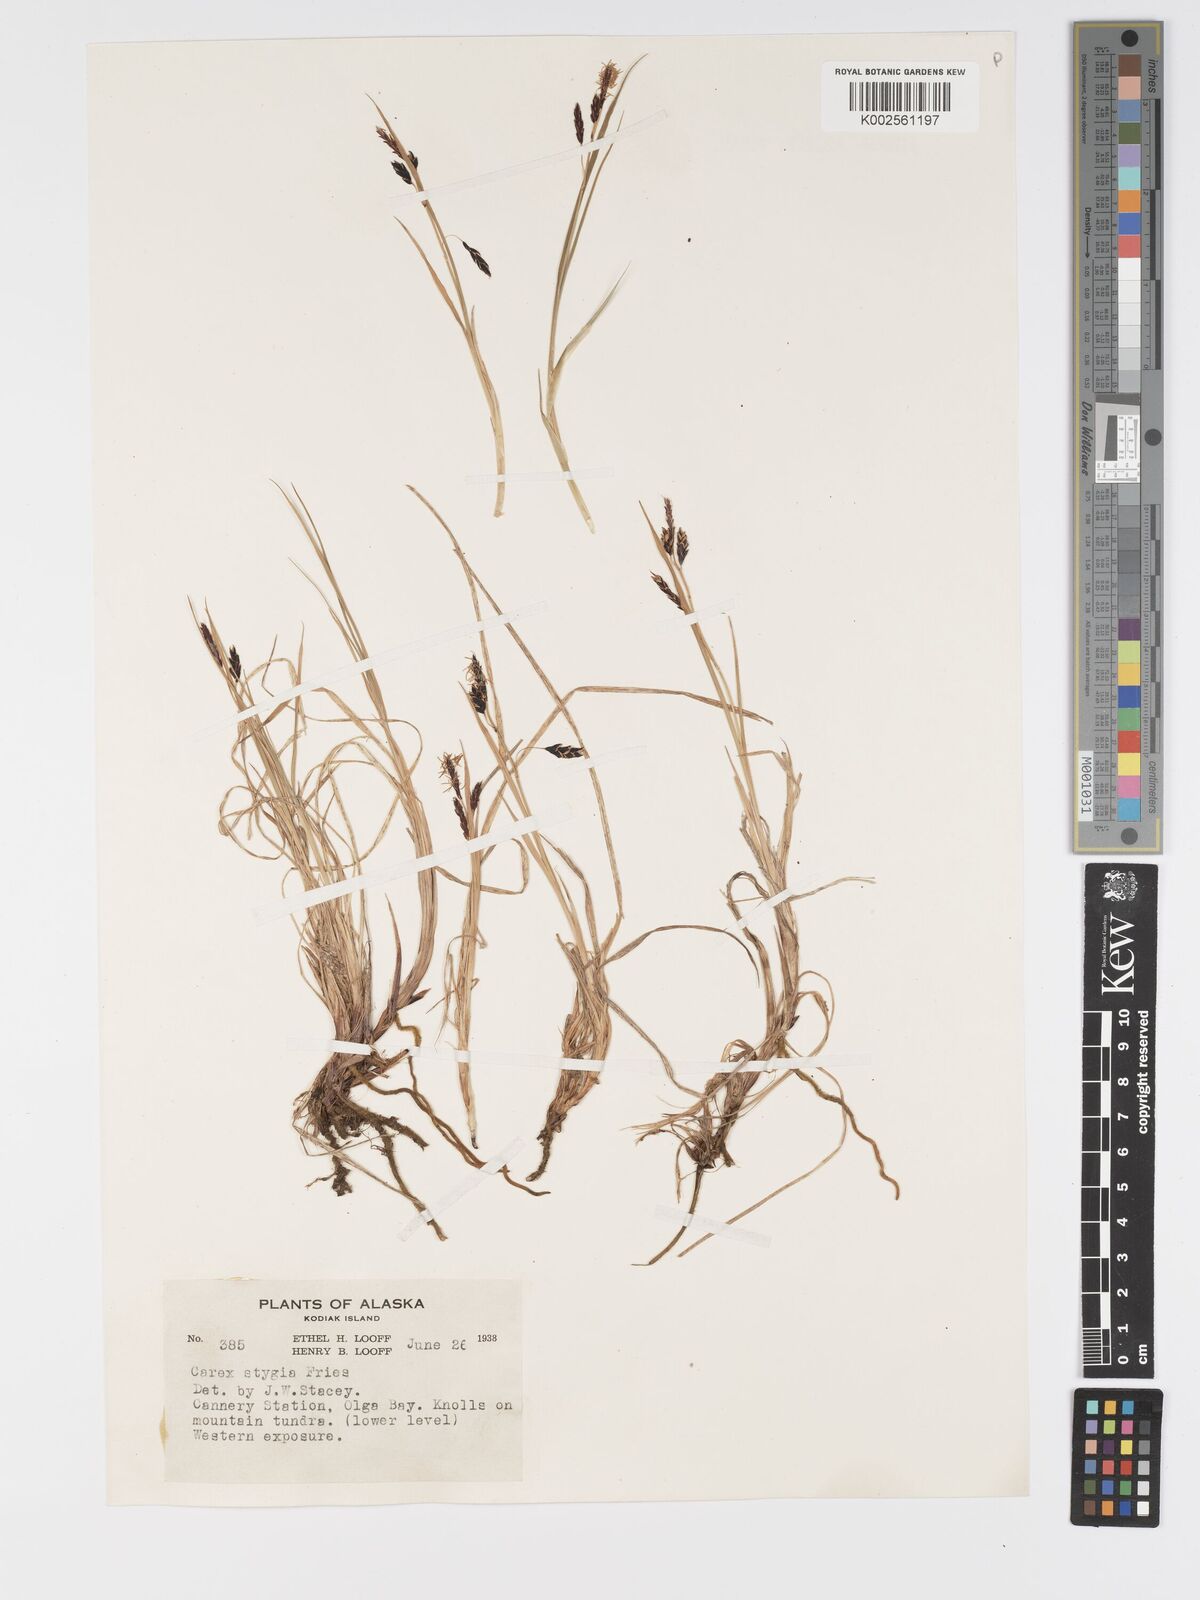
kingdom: Plantae
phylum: Tracheophyta
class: Liliopsida
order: Poales
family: Cyperaceae
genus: Carex
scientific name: Carex stygia
